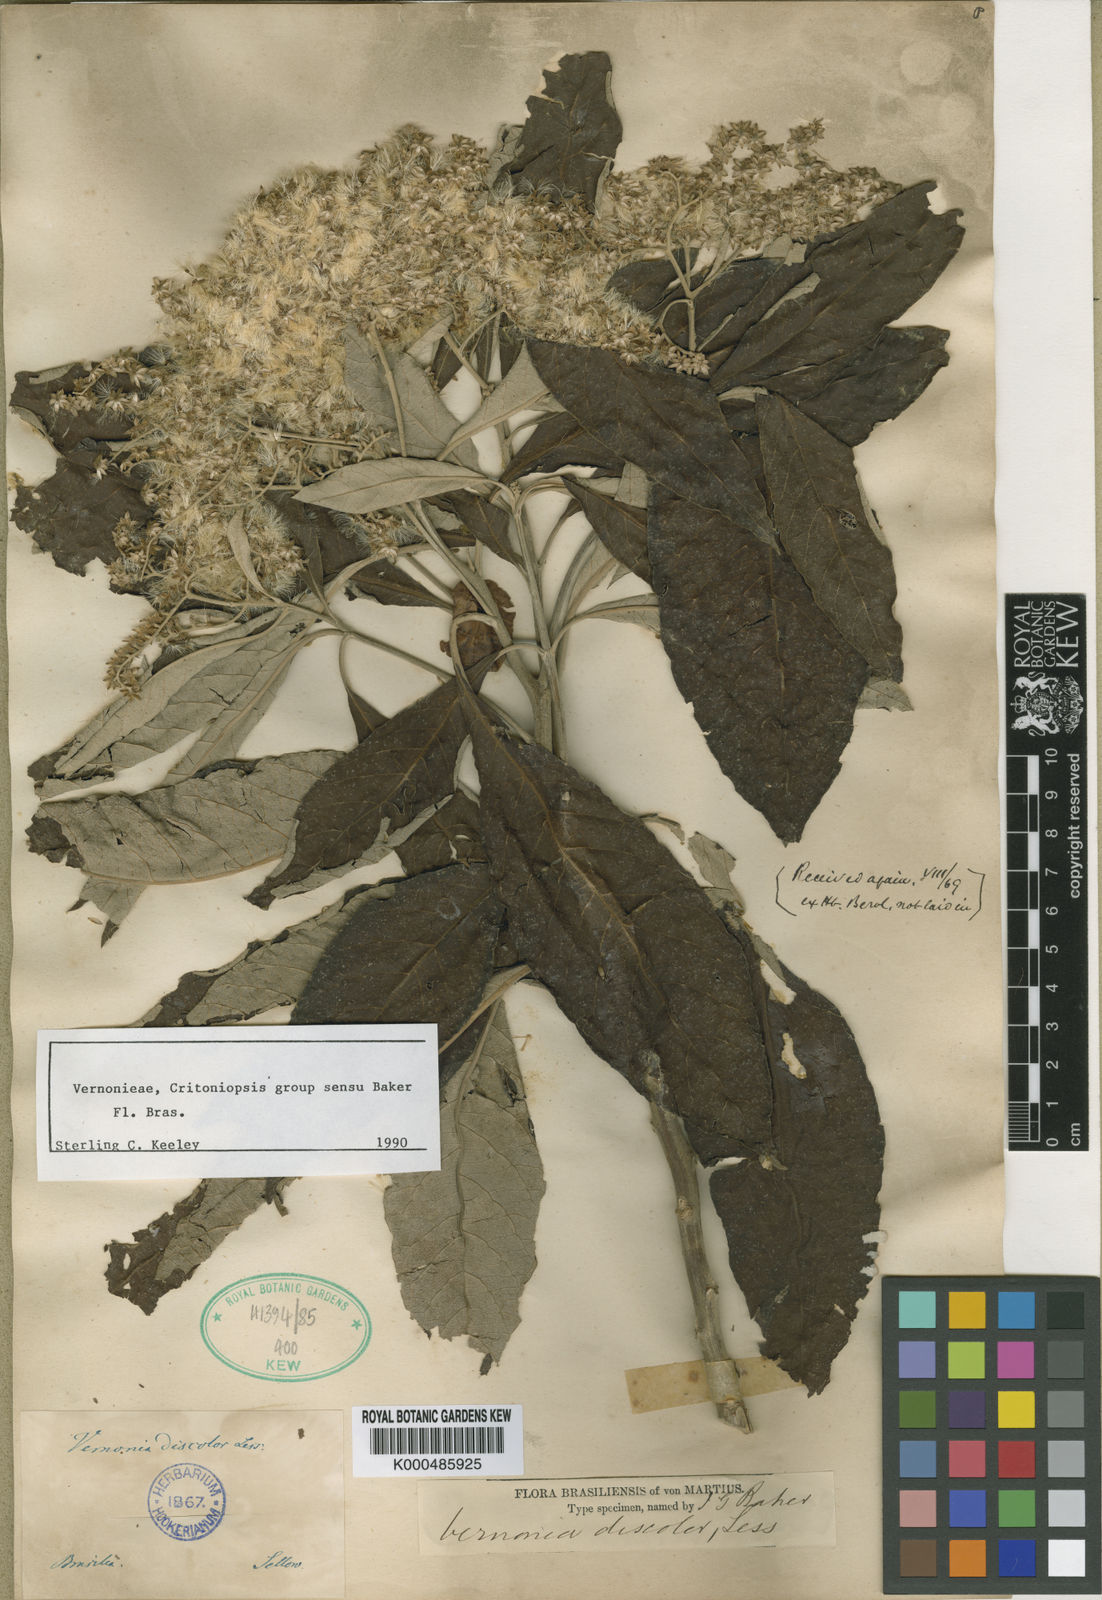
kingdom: Plantae
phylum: Tracheophyta
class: Magnoliopsida
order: Asterales
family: Asteraceae
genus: Vernonanthura
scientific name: Vernonanthura discolor
